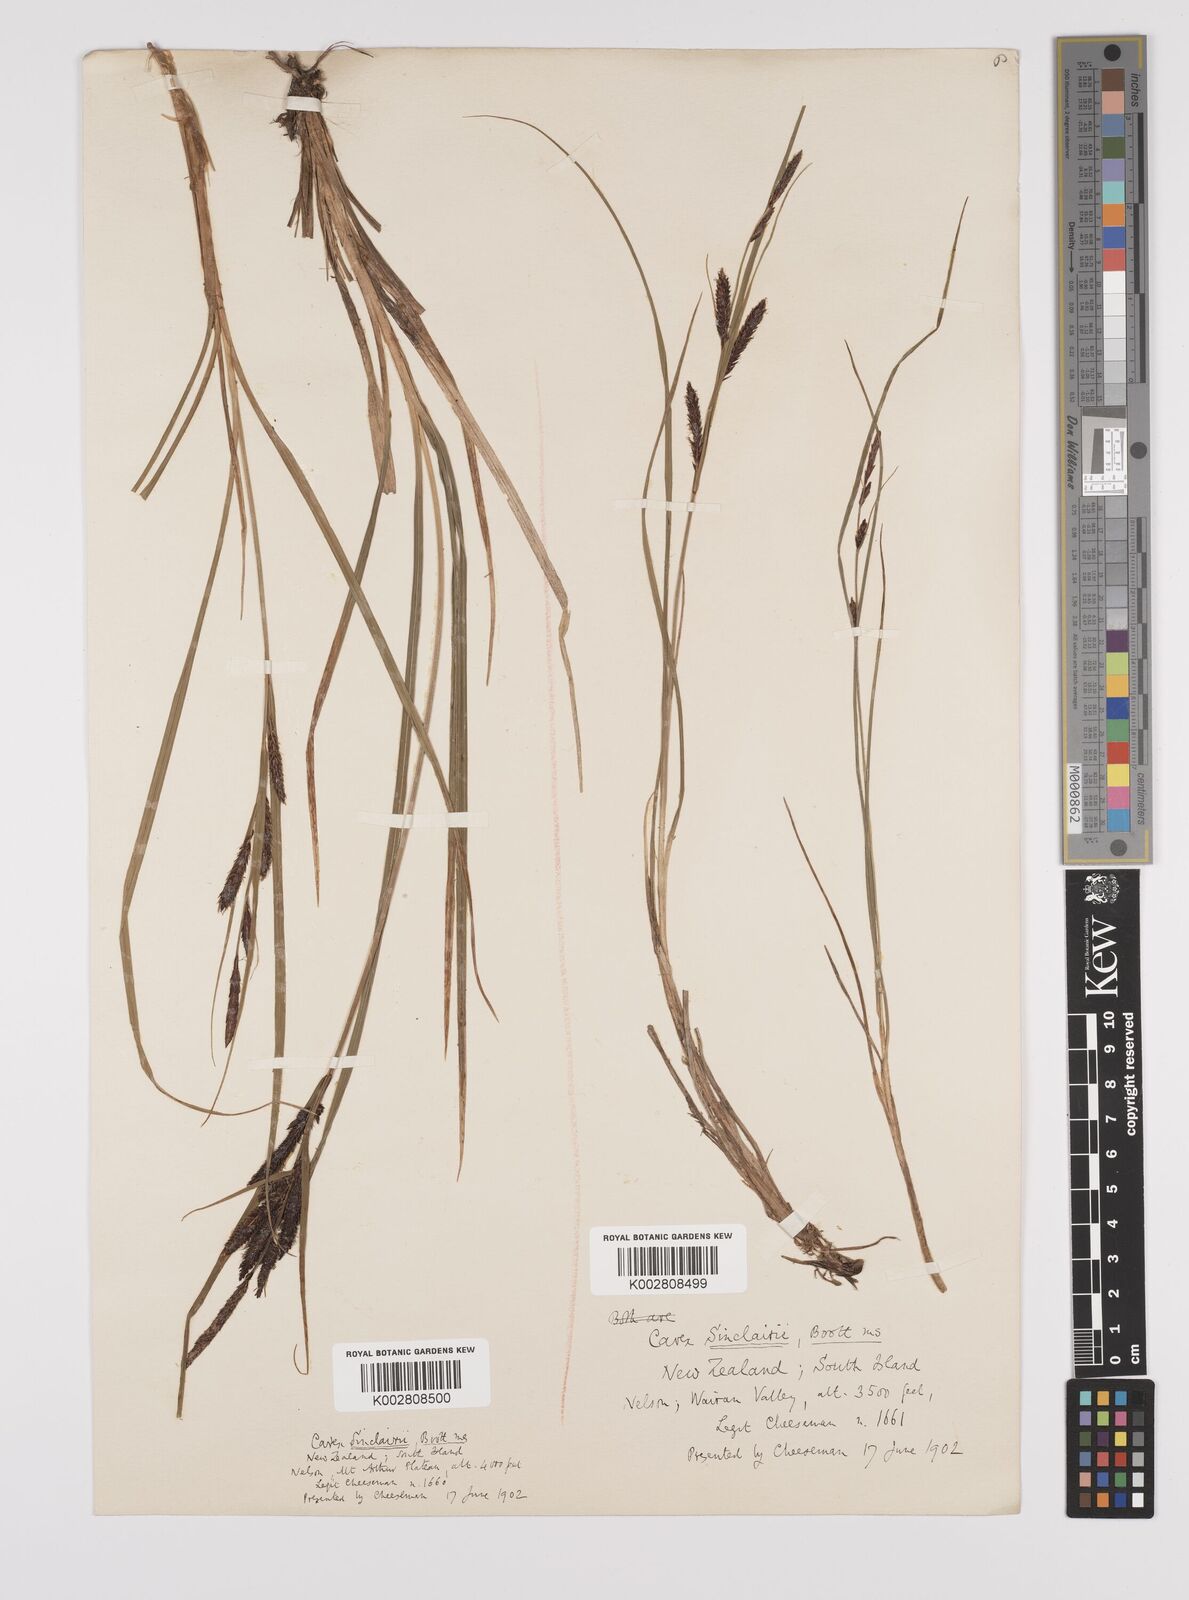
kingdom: Plantae
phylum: Tracheophyta
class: Liliopsida
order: Poales
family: Cyperaceae
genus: Carex
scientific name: Carex sinclairii
